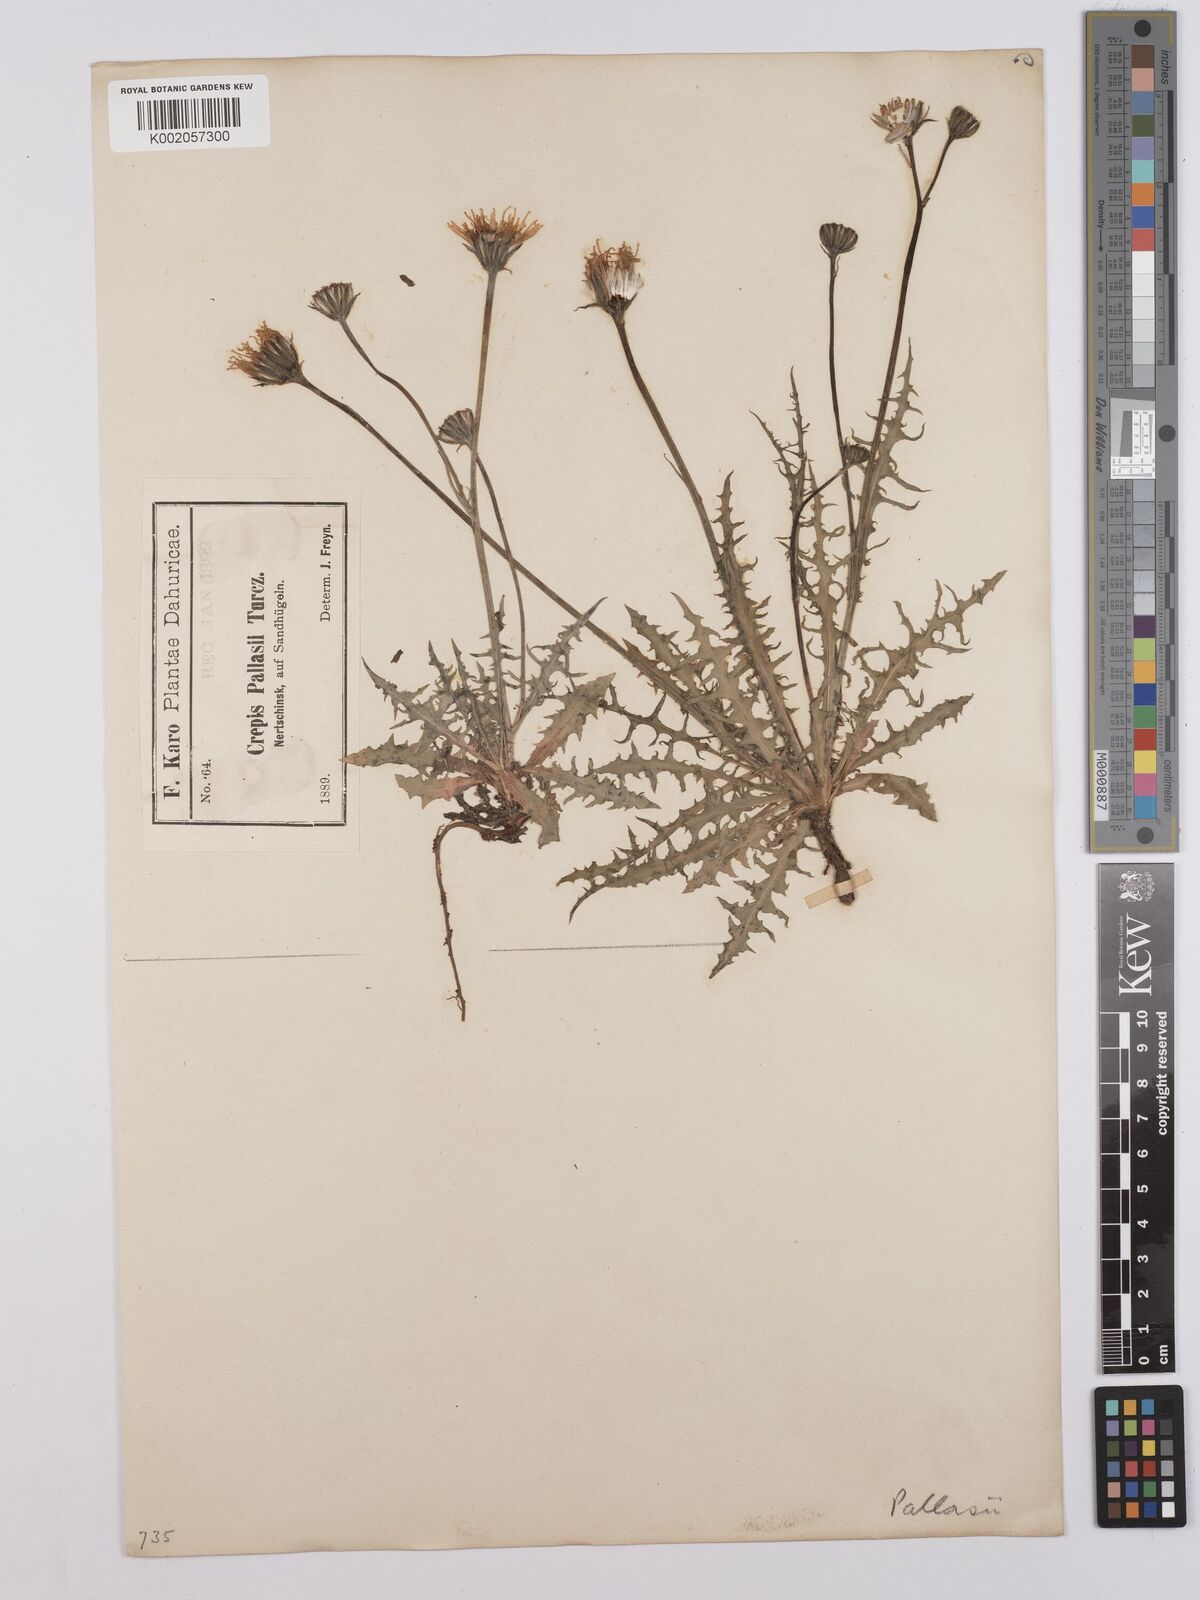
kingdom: Plantae
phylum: Tracheophyta
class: Magnoliopsida
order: Asterales
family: Asteraceae
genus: Crepis
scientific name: Crepis crocea
